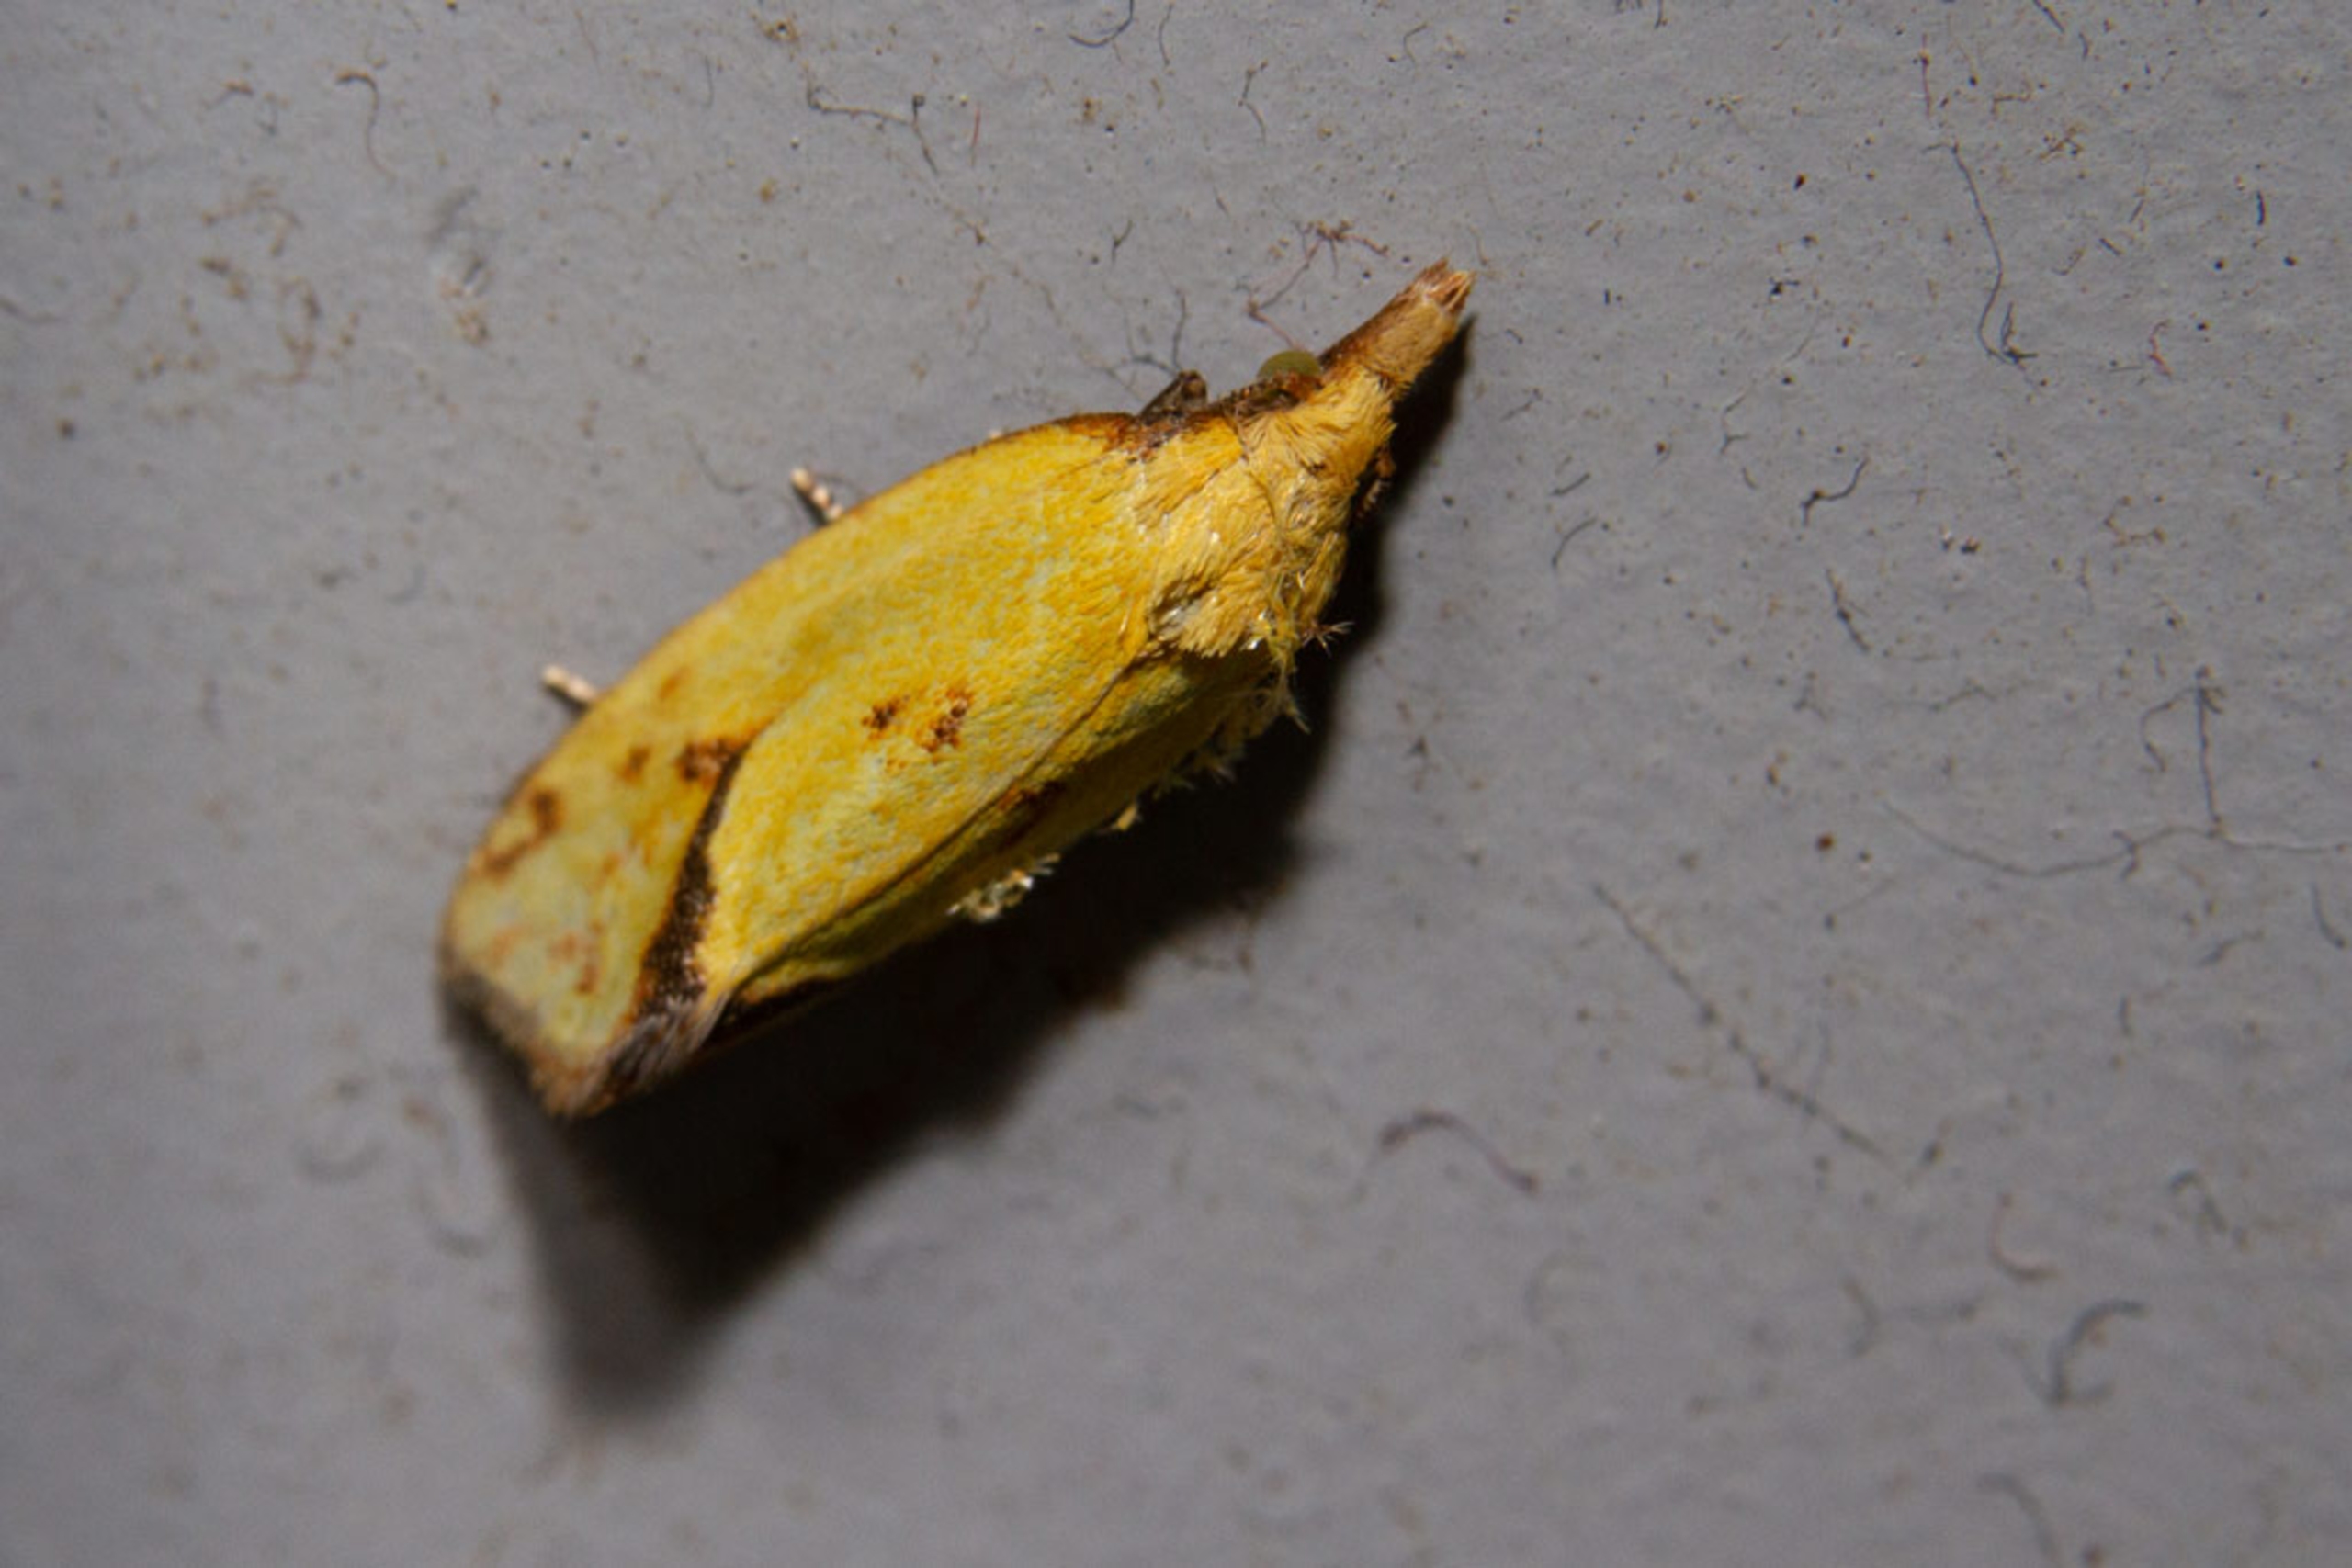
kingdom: Animalia
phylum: Arthropoda
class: Insecta
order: Lepidoptera
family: Tortricidae
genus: Agapeta
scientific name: Agapeta hamana
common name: Tidselgulvikler
